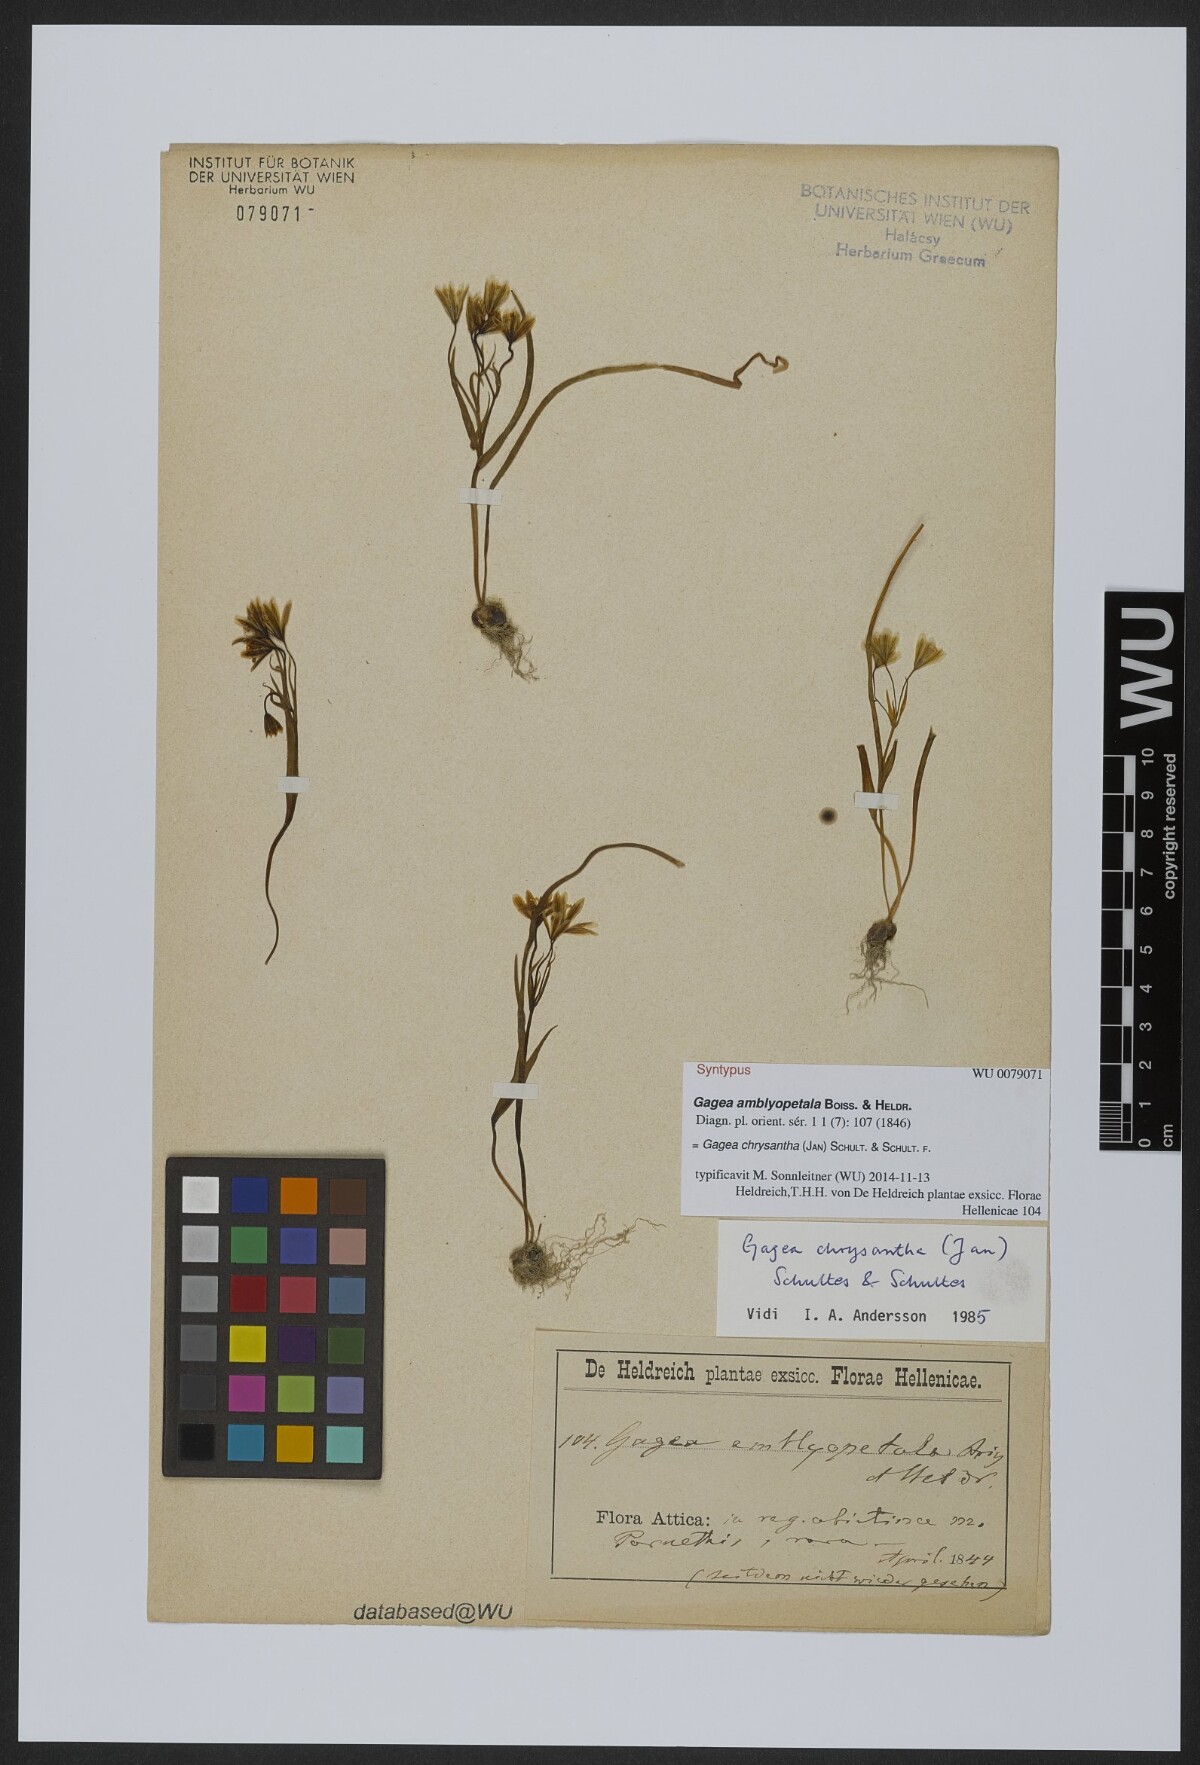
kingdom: Plantae
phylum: Tracheophyta
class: Liliopsida
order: Liliales
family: Liliaceae
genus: Gagea
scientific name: Gagea amblyopetala
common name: Blunt-flowered gagea
